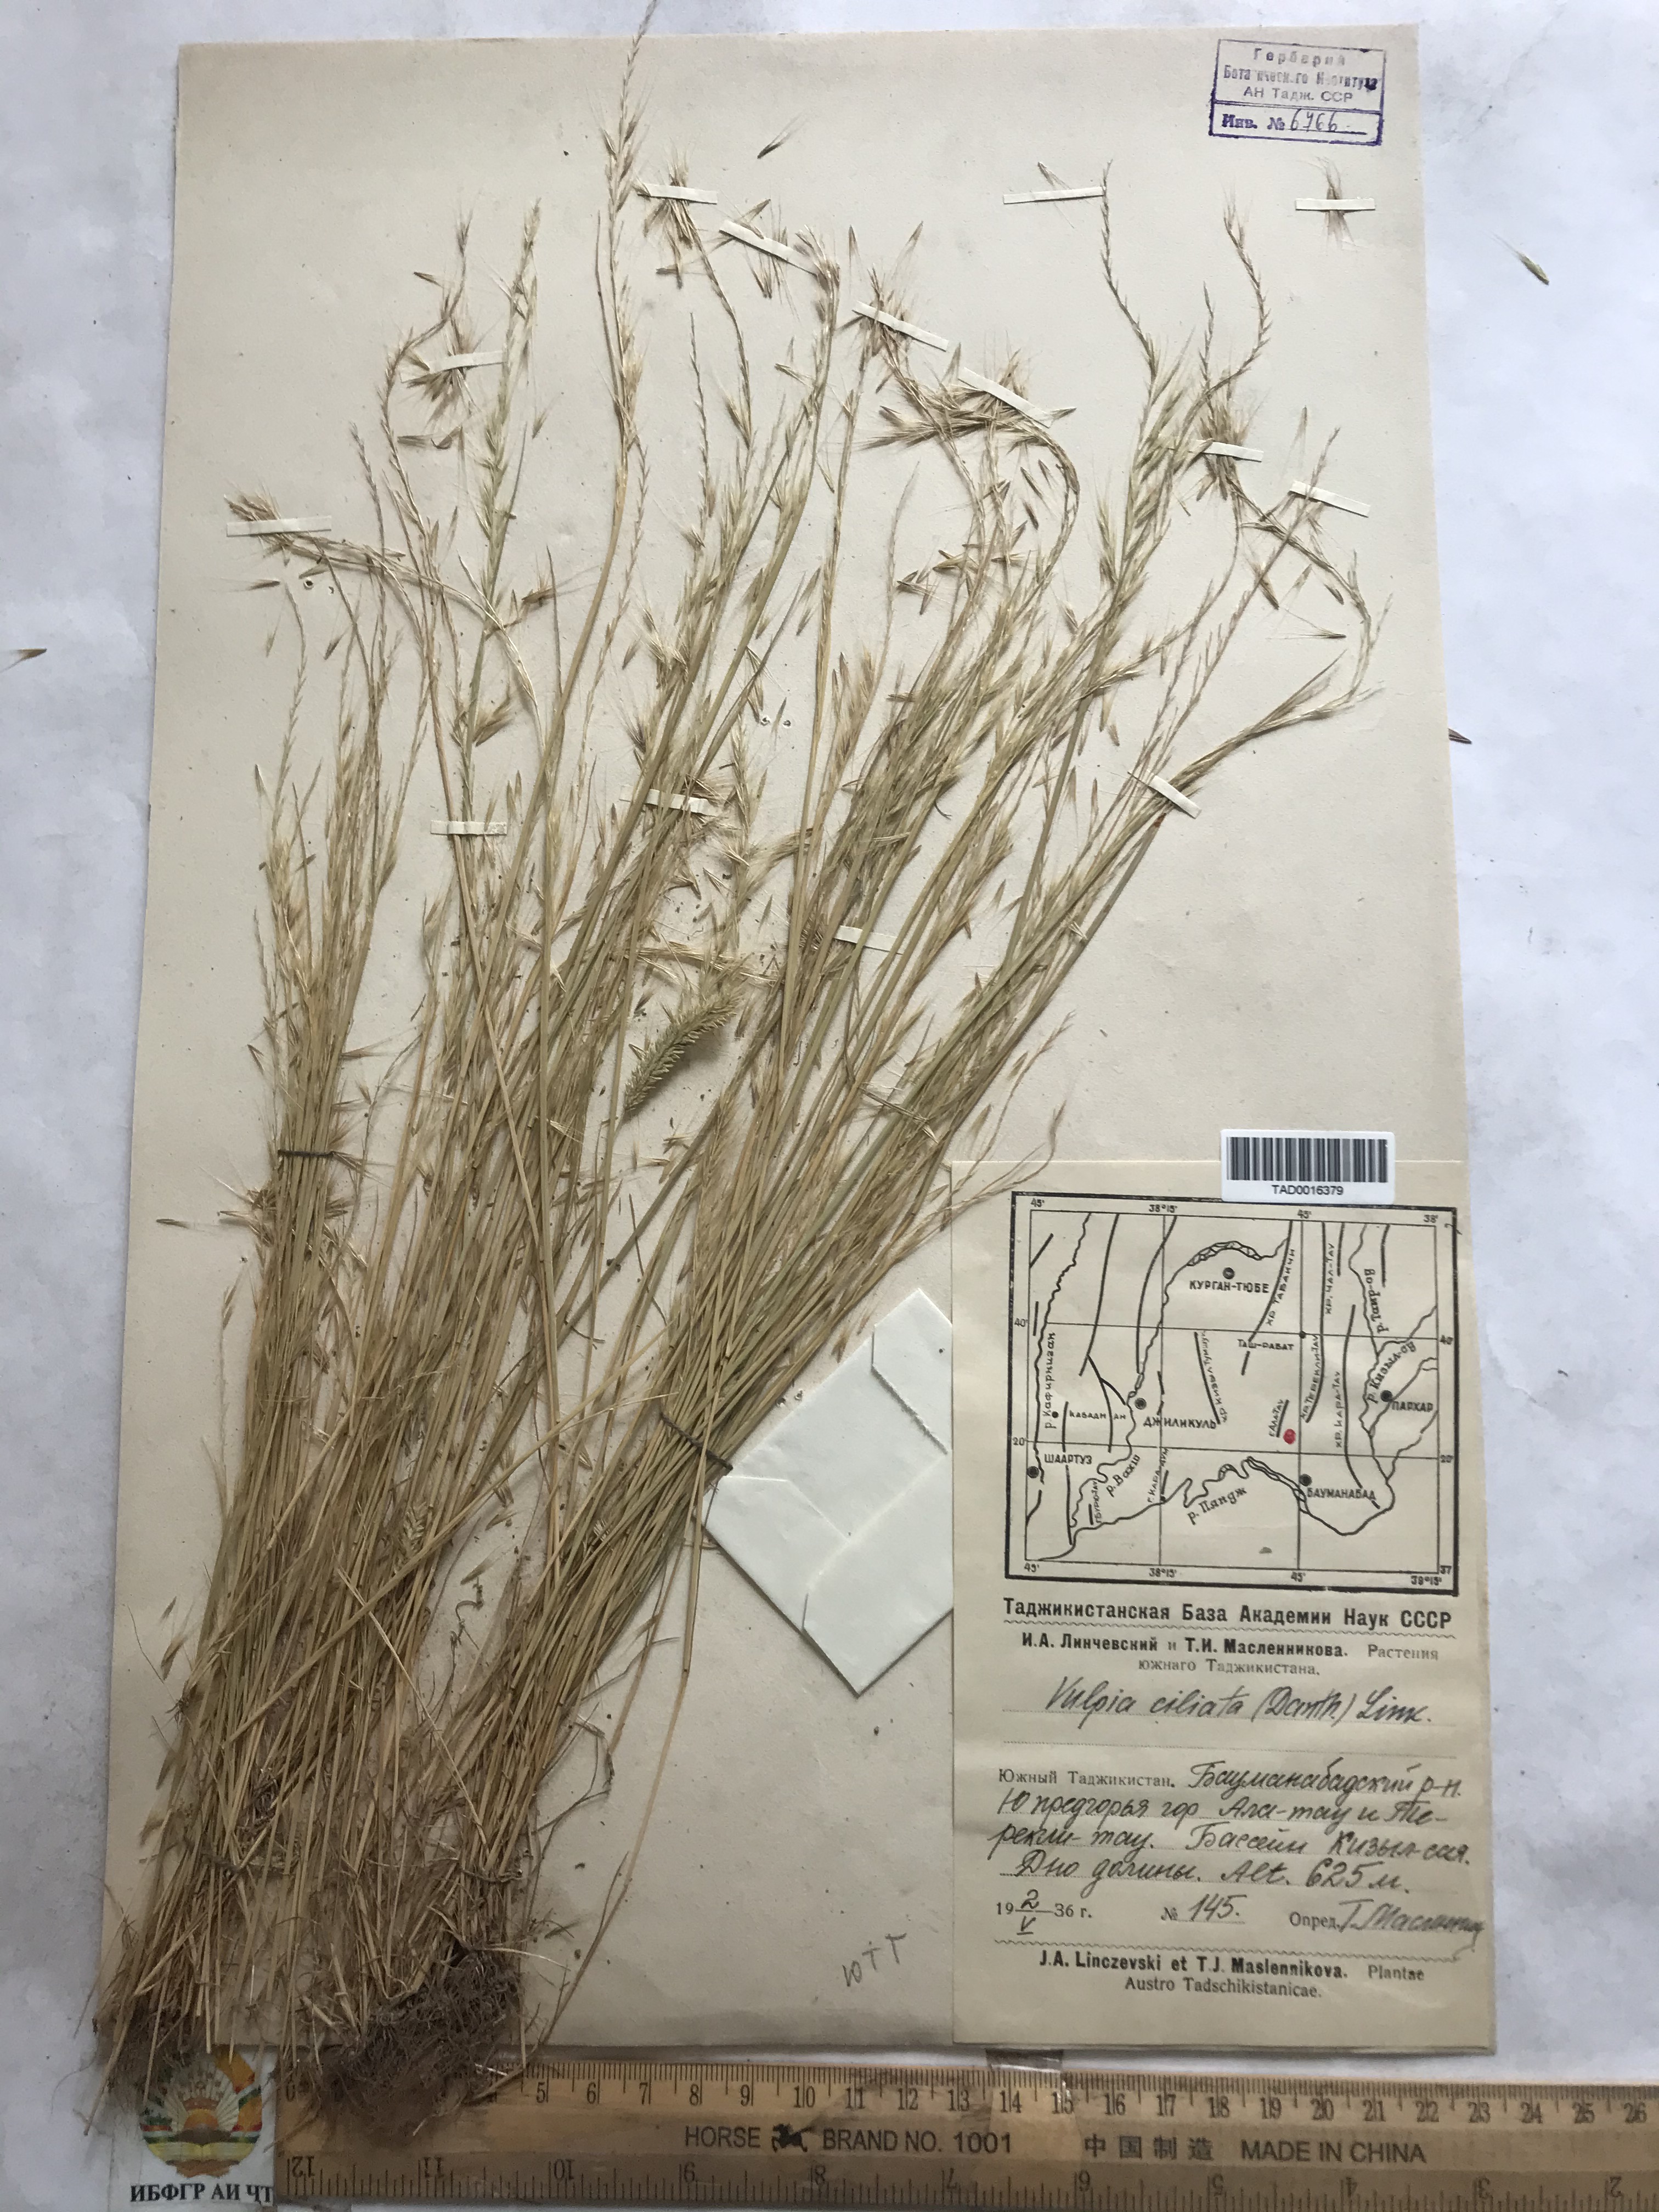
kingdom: Plantae
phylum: Tracheophyta
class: Liliopsida
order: Poales
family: Poaceae
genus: Festuca
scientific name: Festuca ambigua
